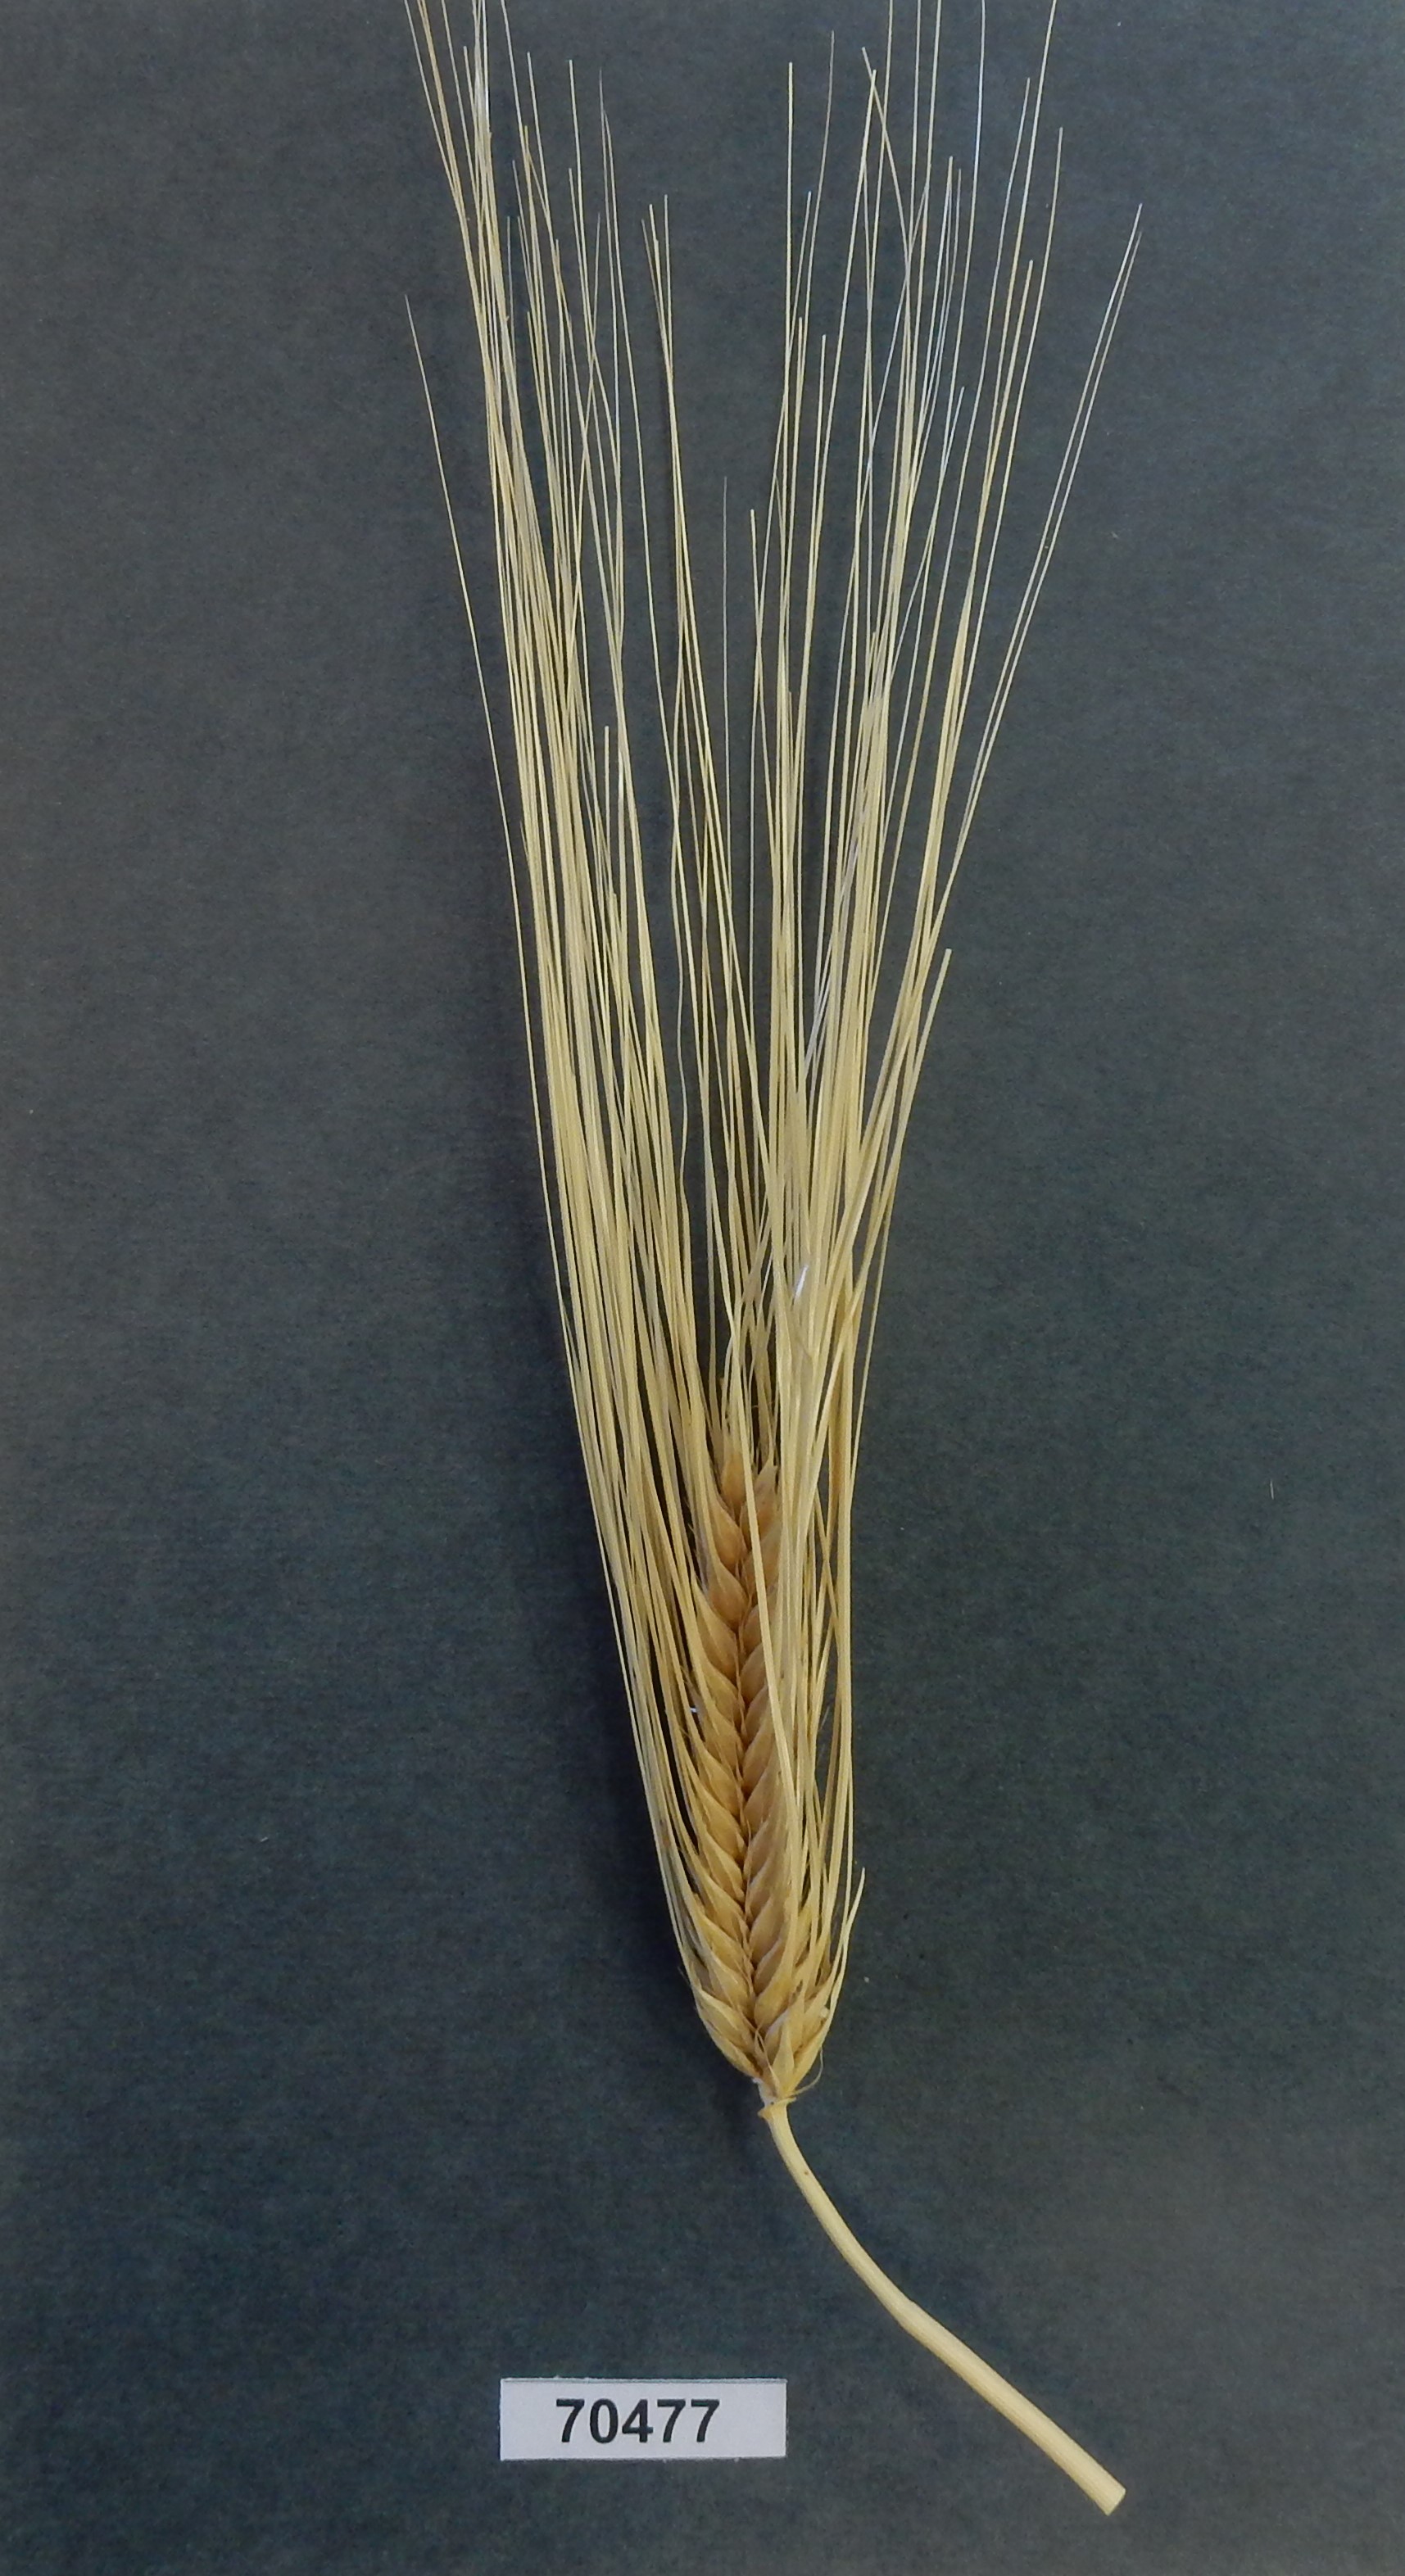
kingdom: Plantae
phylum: Tracheophyta
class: Liliopsida
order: Poales
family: Poaceae
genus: Hordeum
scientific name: Hordeum
